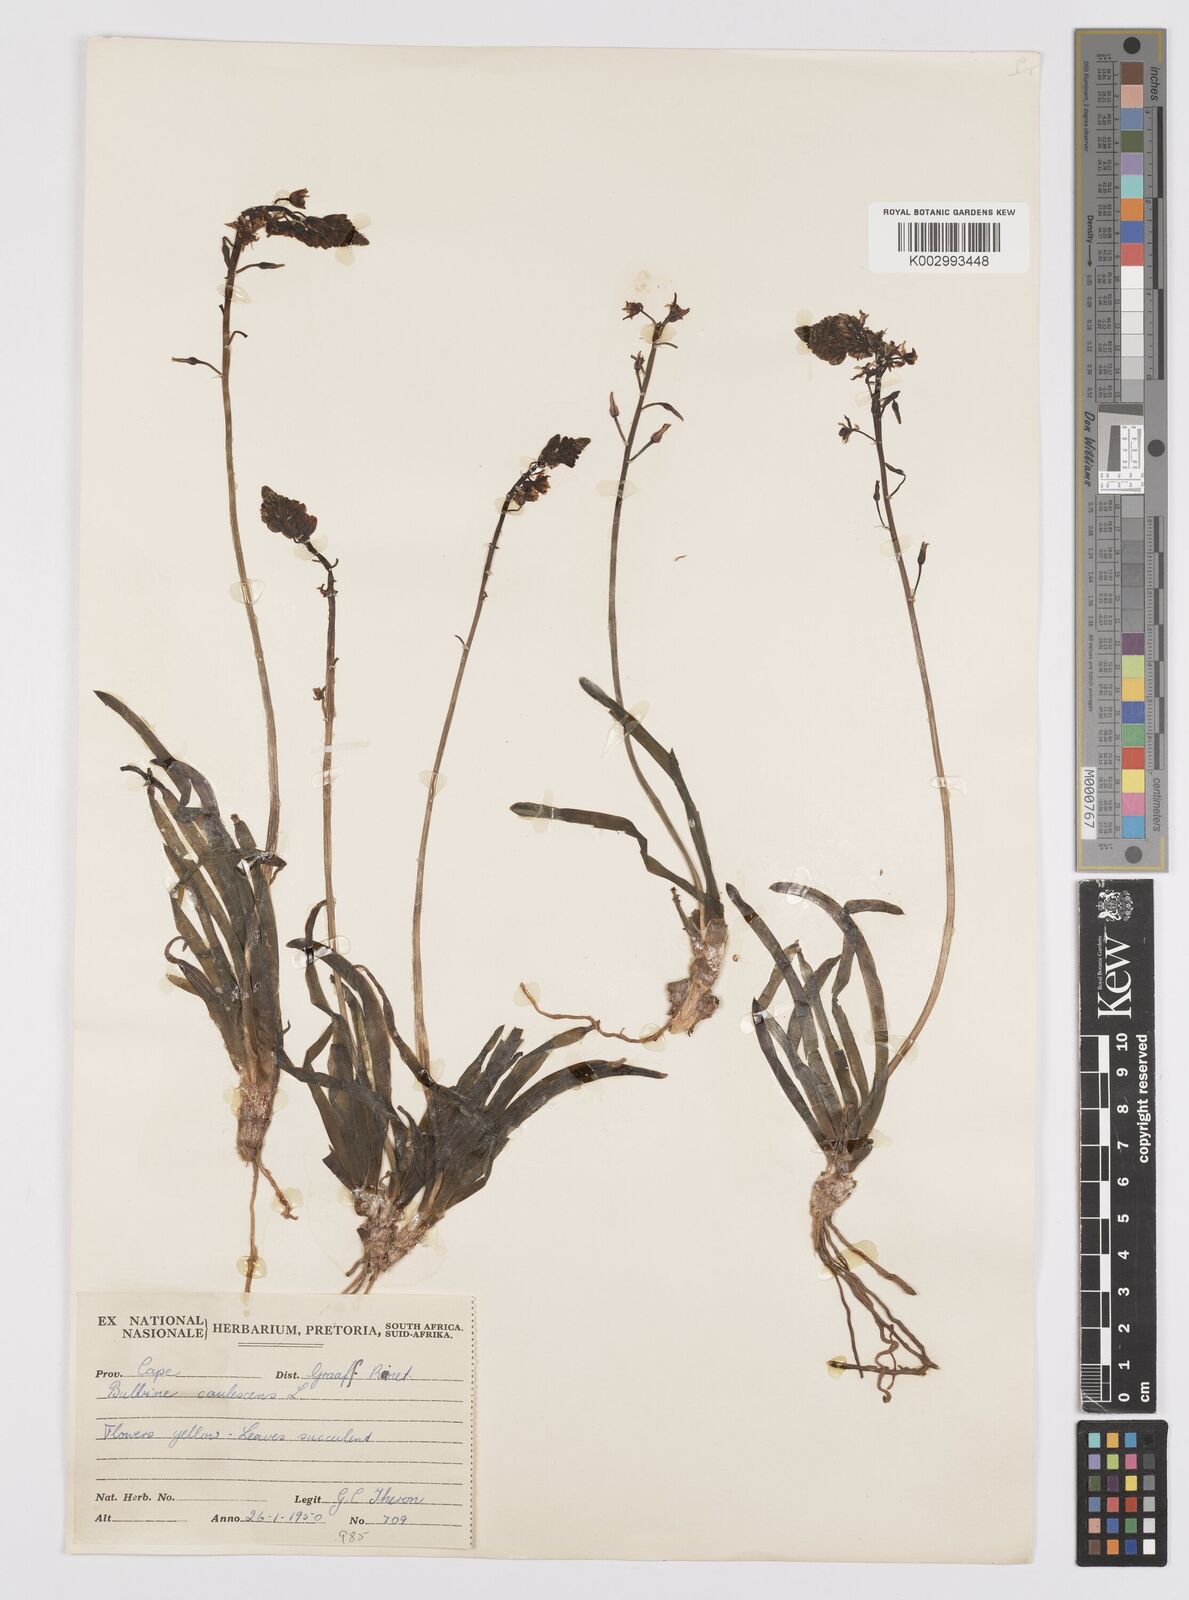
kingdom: Plantae
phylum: Tracheophyta
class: Liliopsida
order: Asparagales
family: Asphodelaceae
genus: Bulbine
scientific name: Bulbine frutescens
